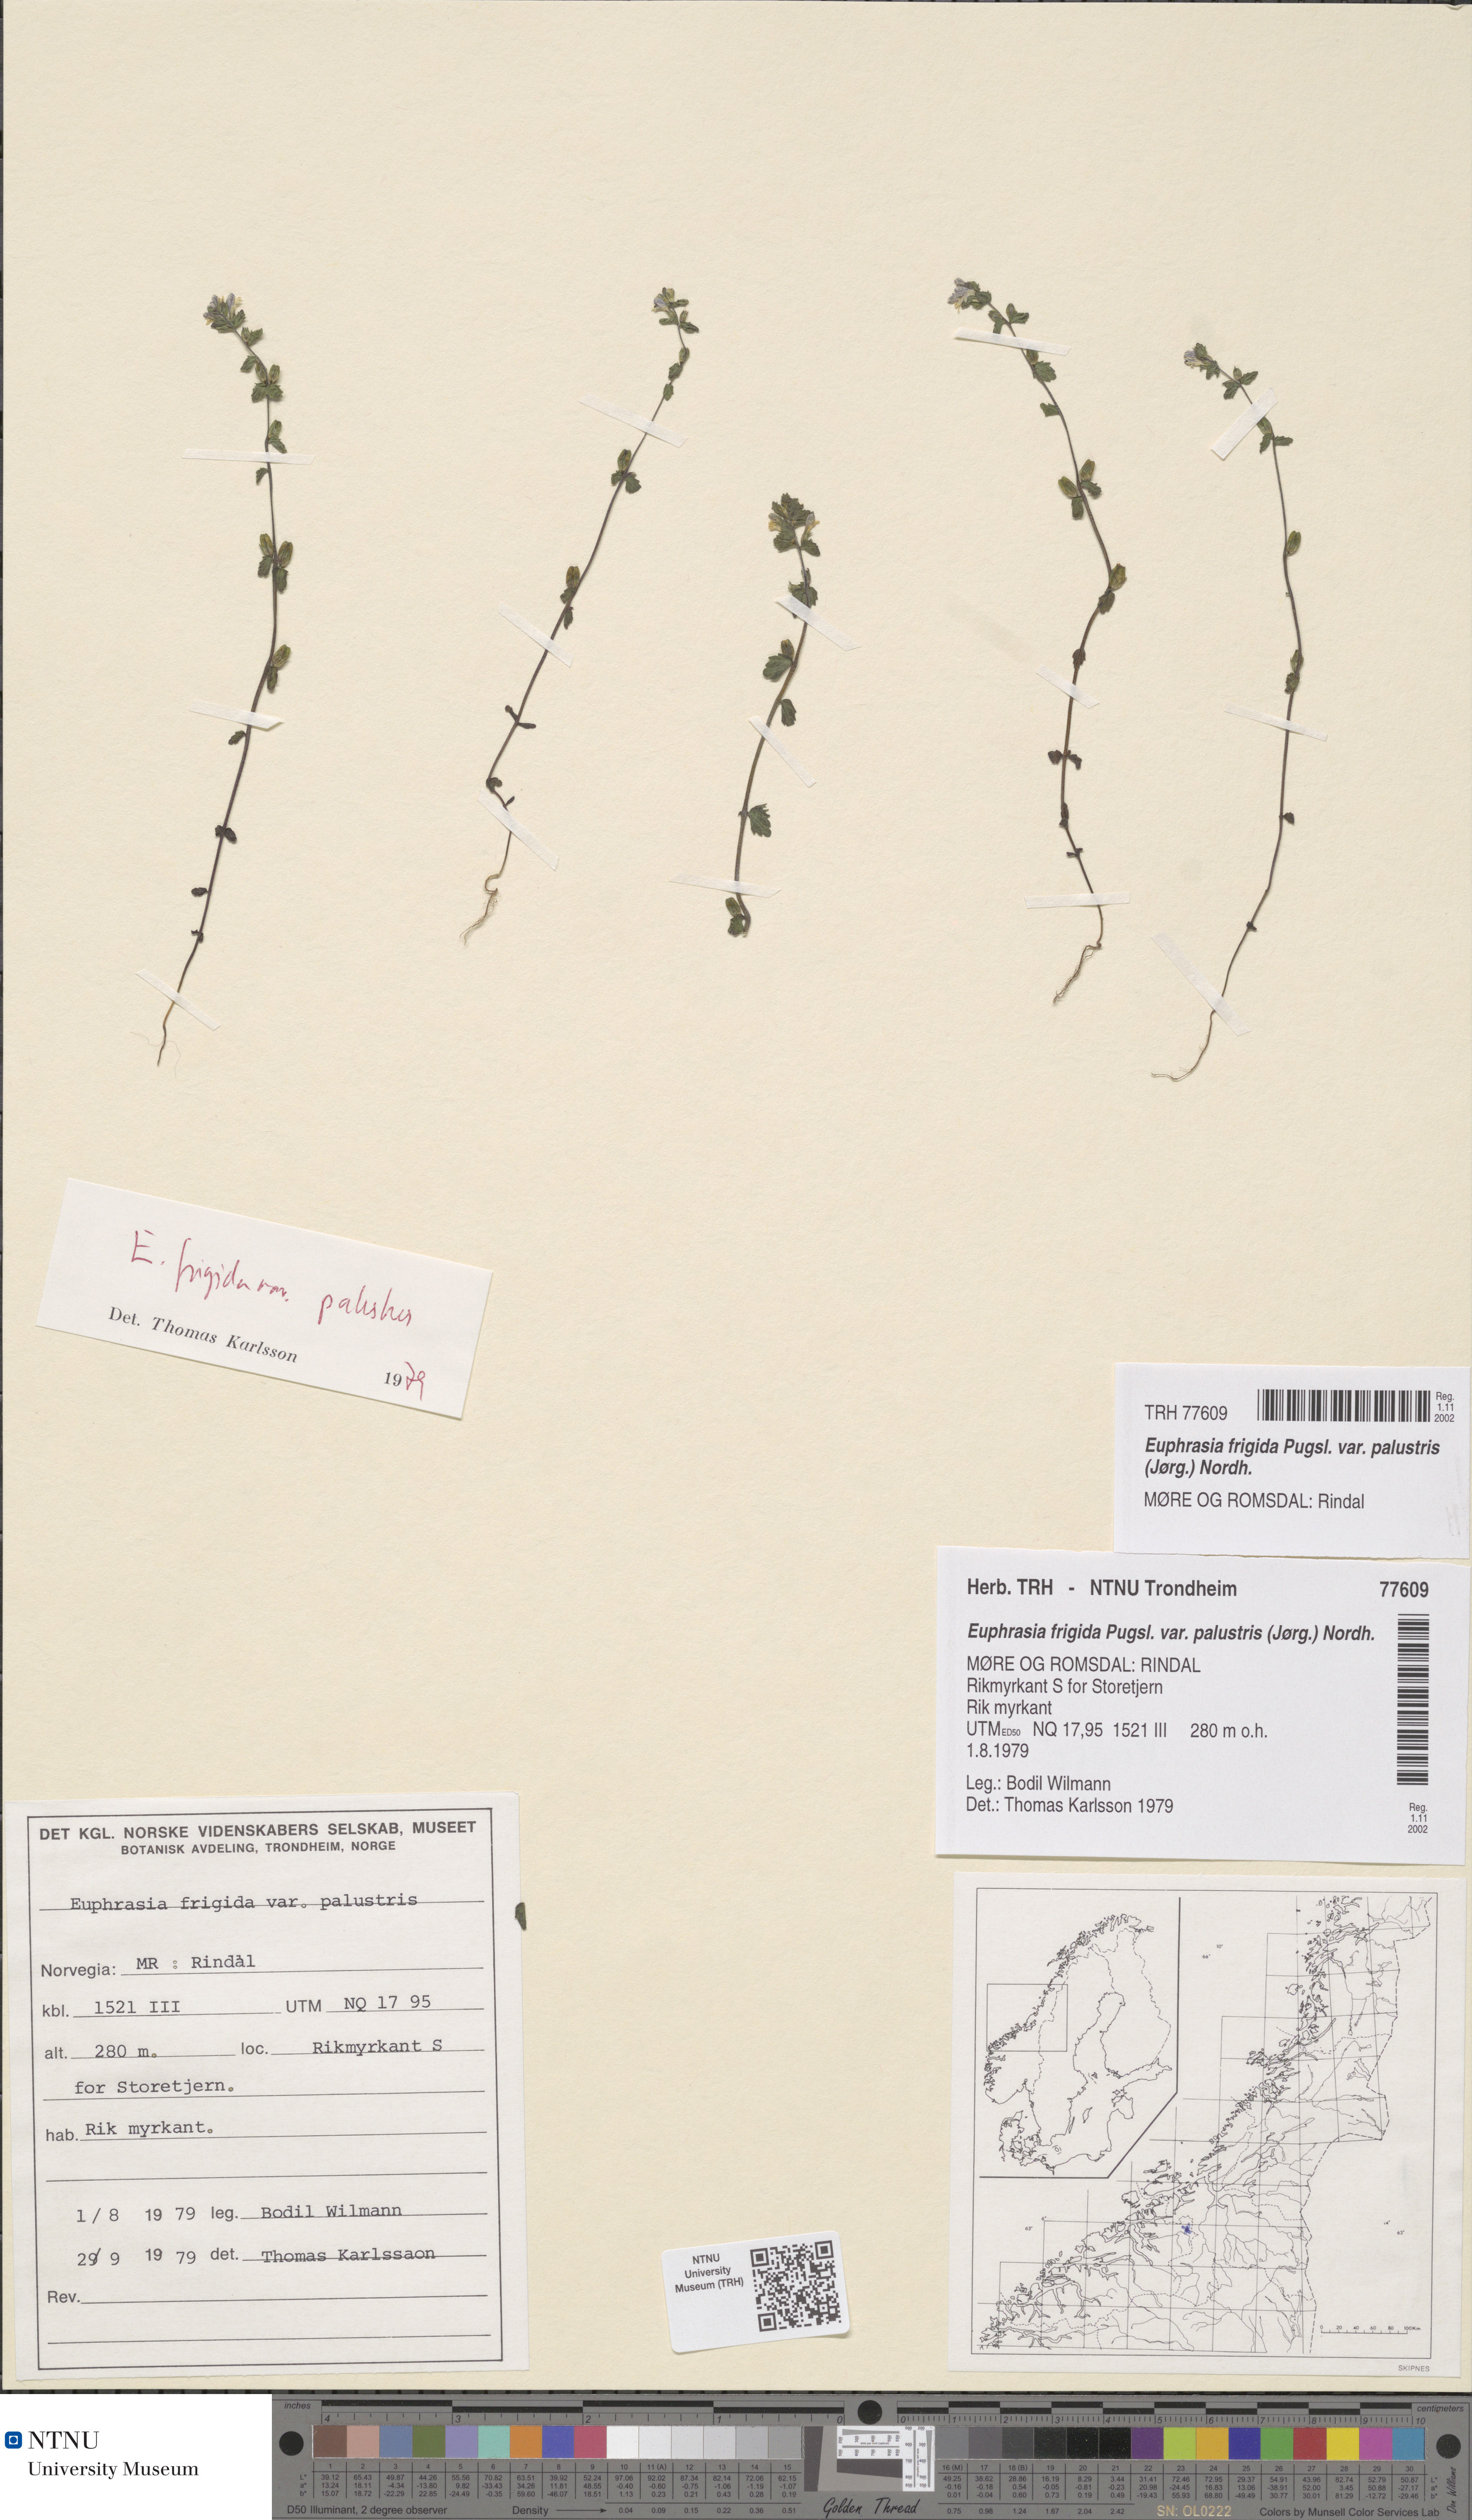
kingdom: Plantae
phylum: Tracheophyta
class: Magnoliopsida
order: Lamiales
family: Orobanchaceae
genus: Euphrasia
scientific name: Euphrasia wettsteinii
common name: Wettstein's eyebright
